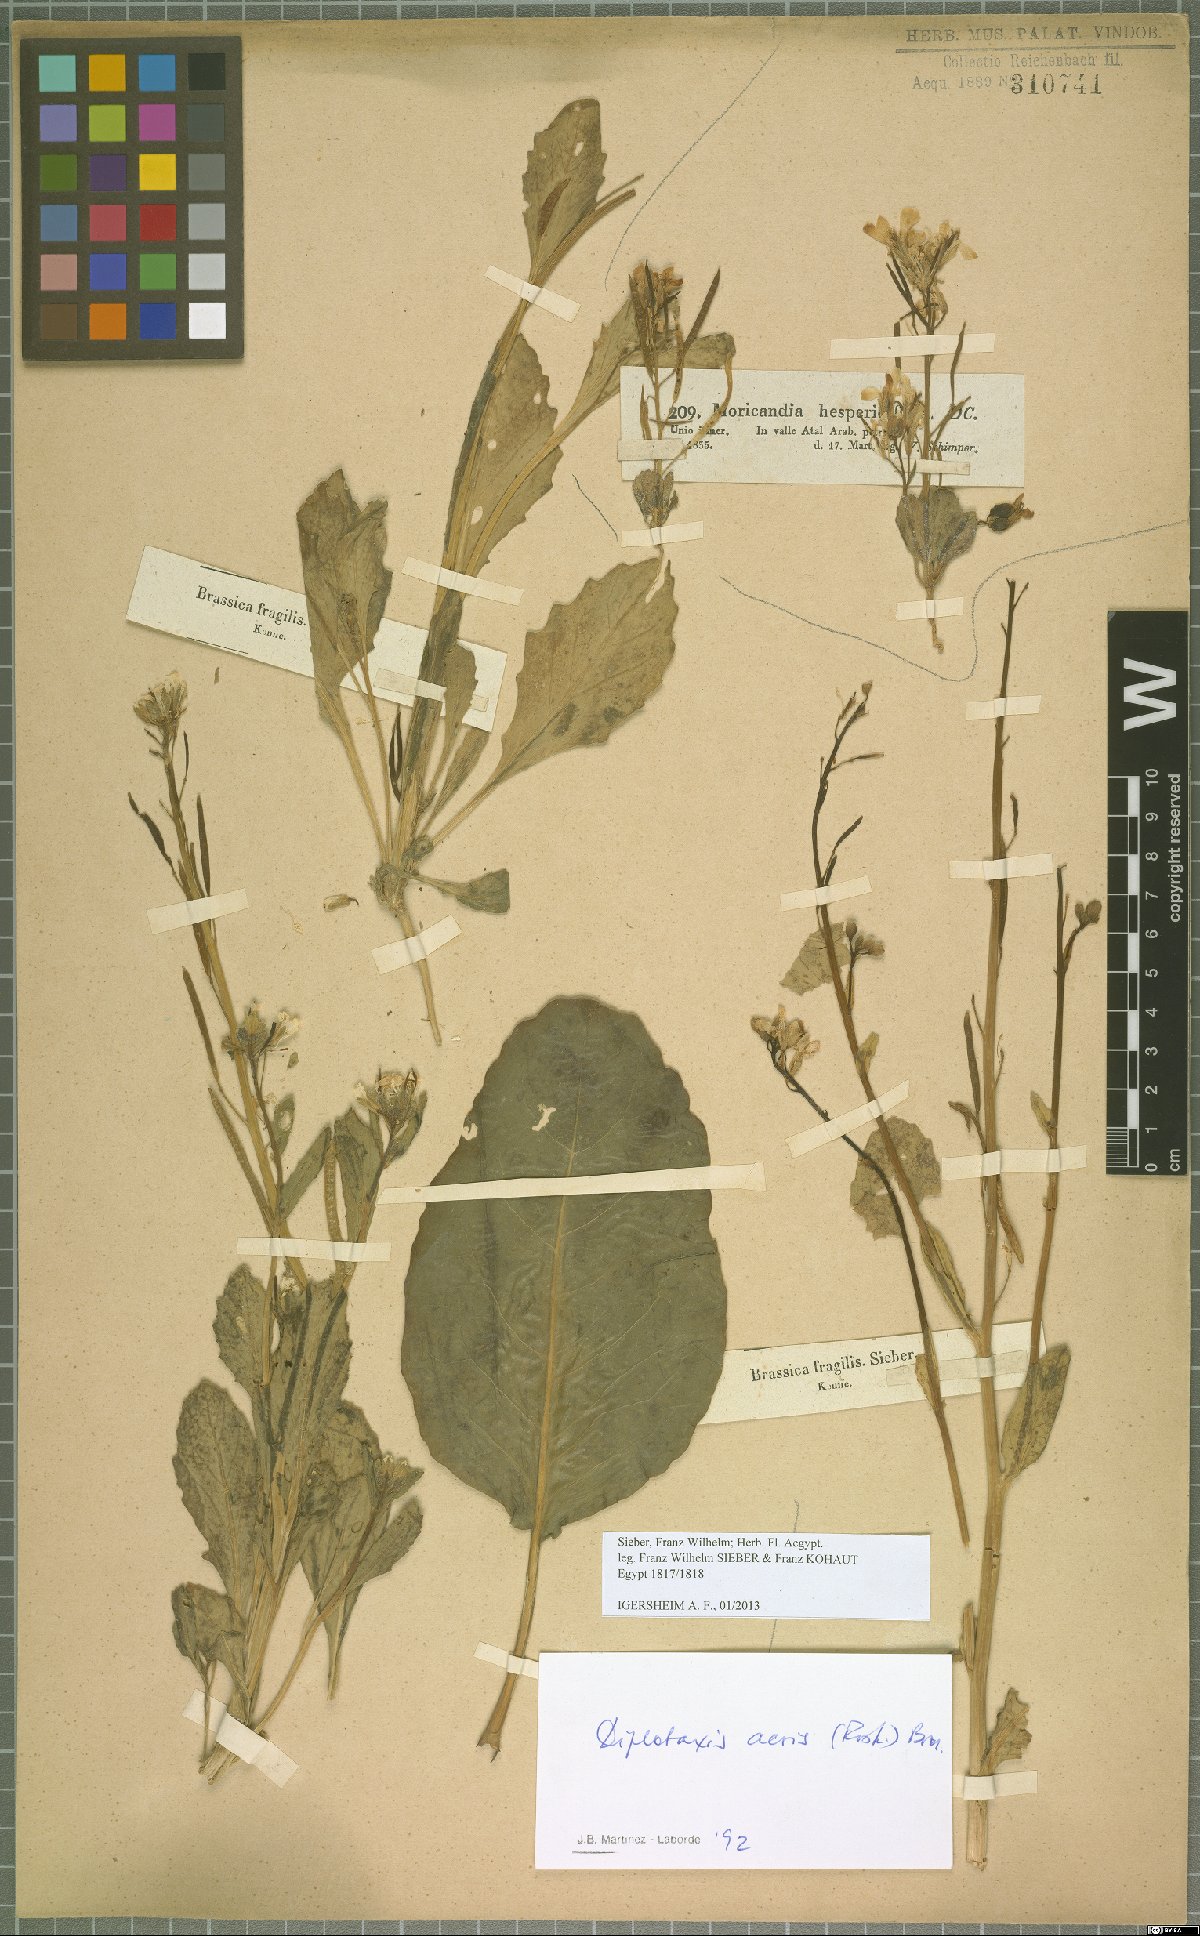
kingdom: Plantae
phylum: Tracheophyta
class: Magnoliopsida
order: Brassicales
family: Brassicaceae
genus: Diplotaxis
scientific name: Diplotaxis acris
